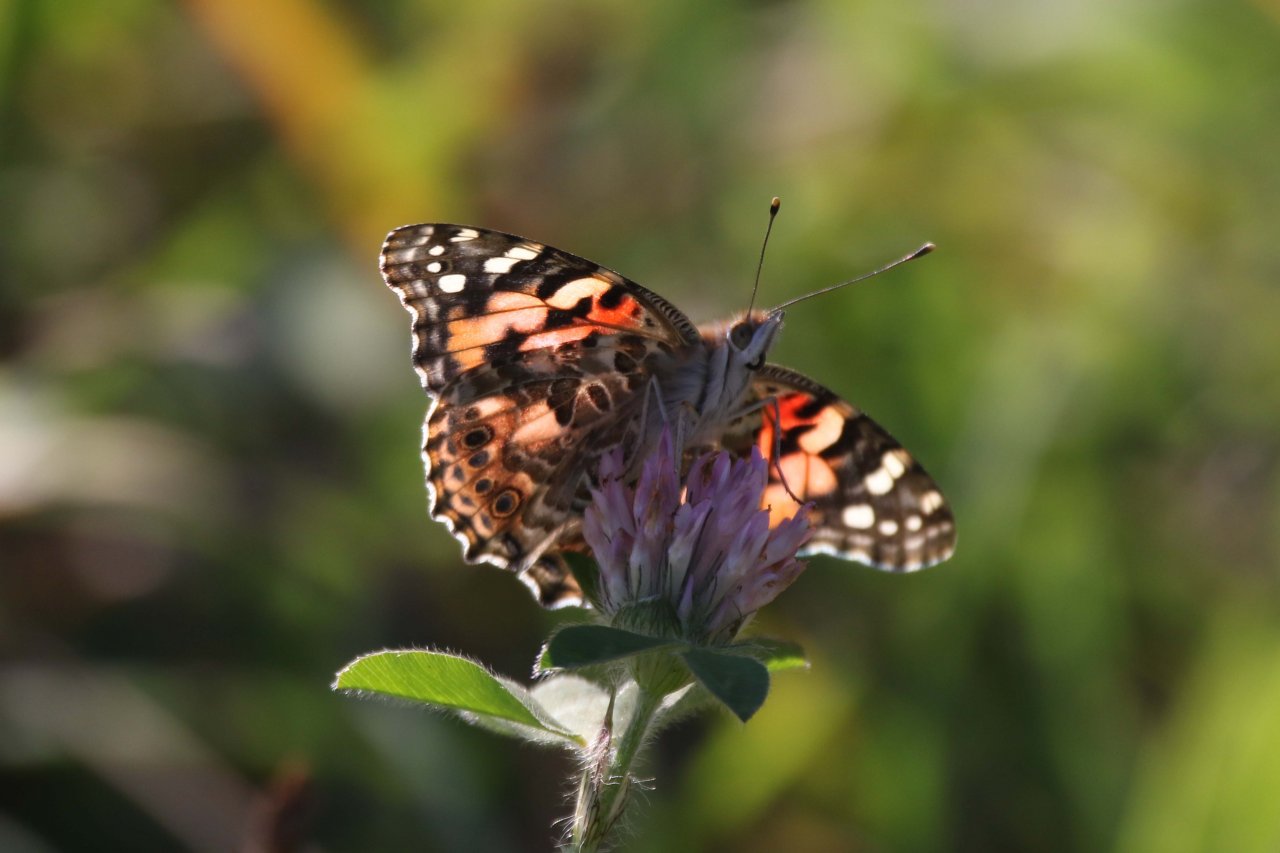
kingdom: Animalia
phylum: Arthropoda
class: Insecta
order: Lepidoptera
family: Nymphalidae
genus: Vanessa
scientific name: Vanessa cardui
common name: Painted Lady
